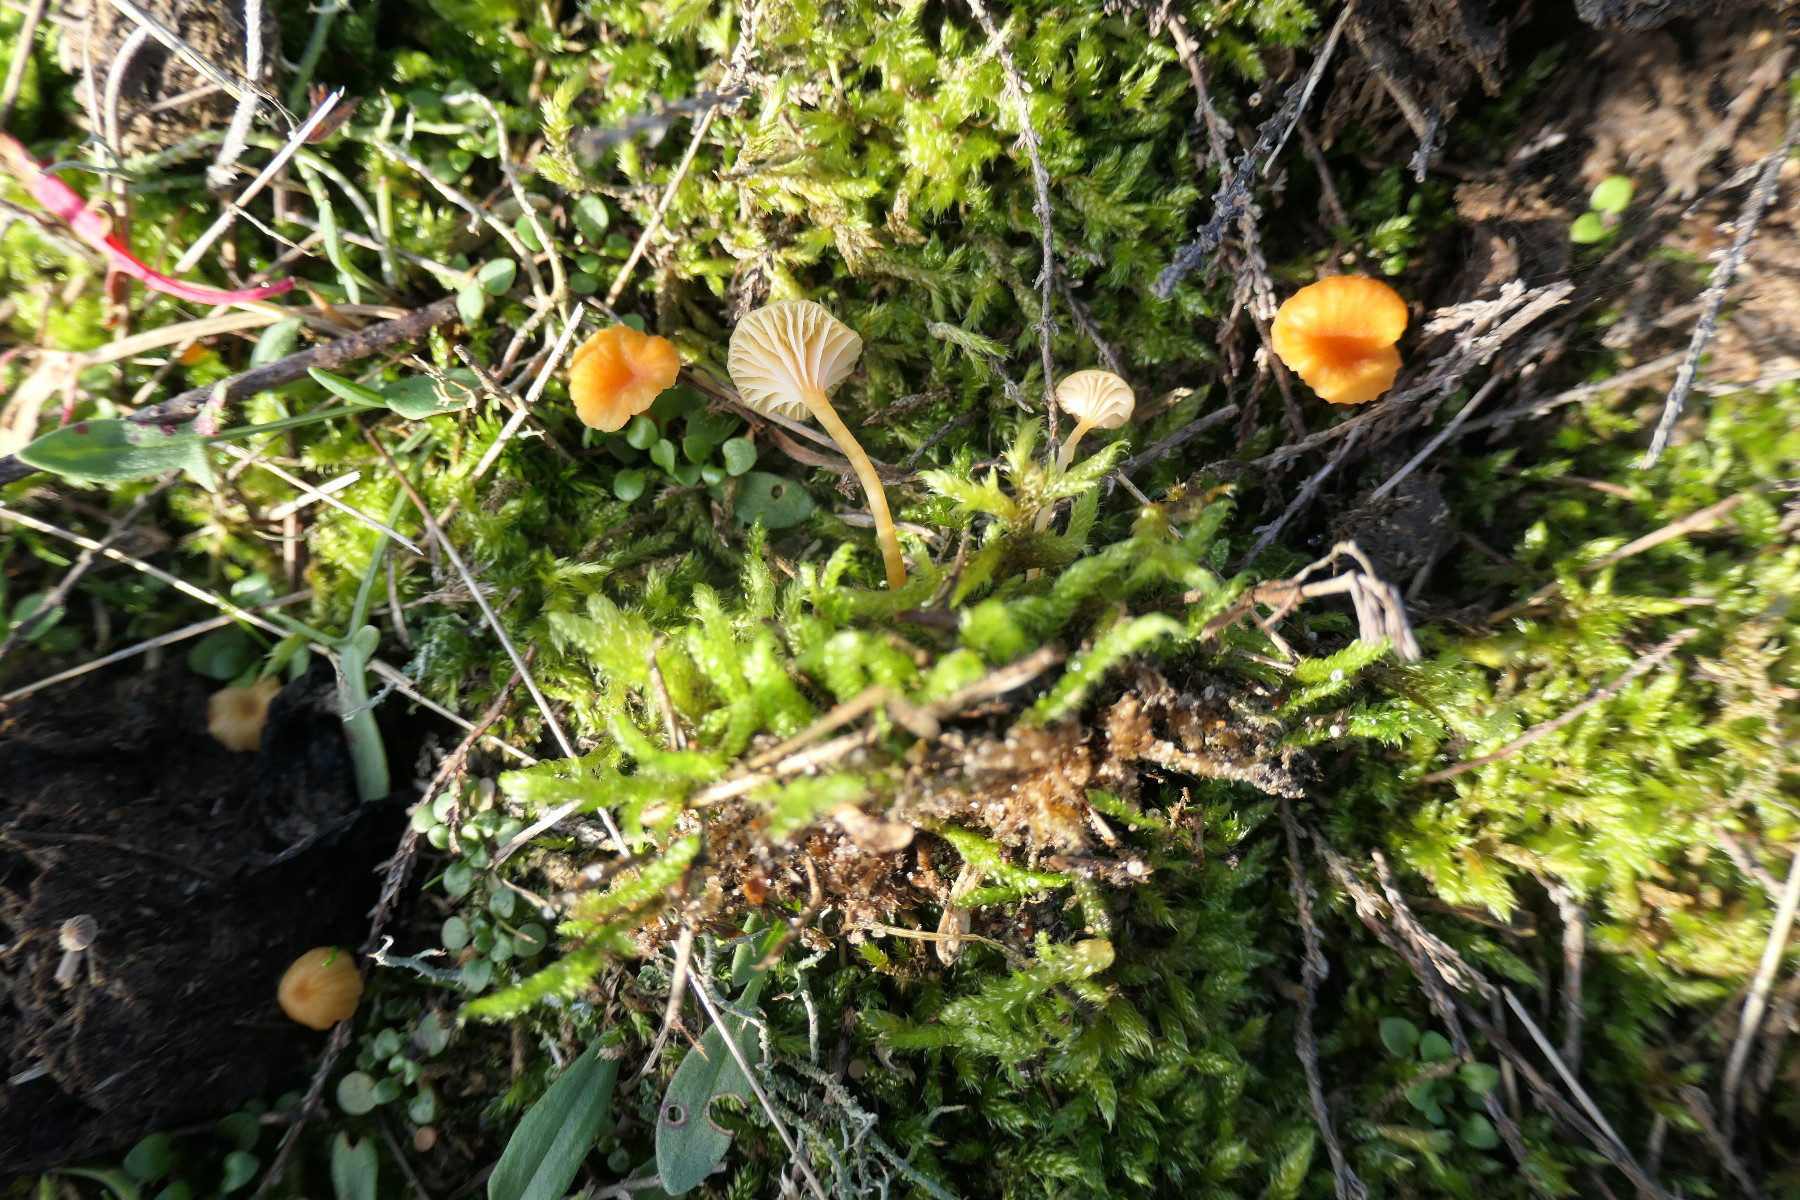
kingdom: Fungi
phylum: Basidiomycota
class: Agaricomycetes
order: Hymenochaetales
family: Rickenellaceae
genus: Rickenella
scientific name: Rickenella fibula
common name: orange mosnavlehat
